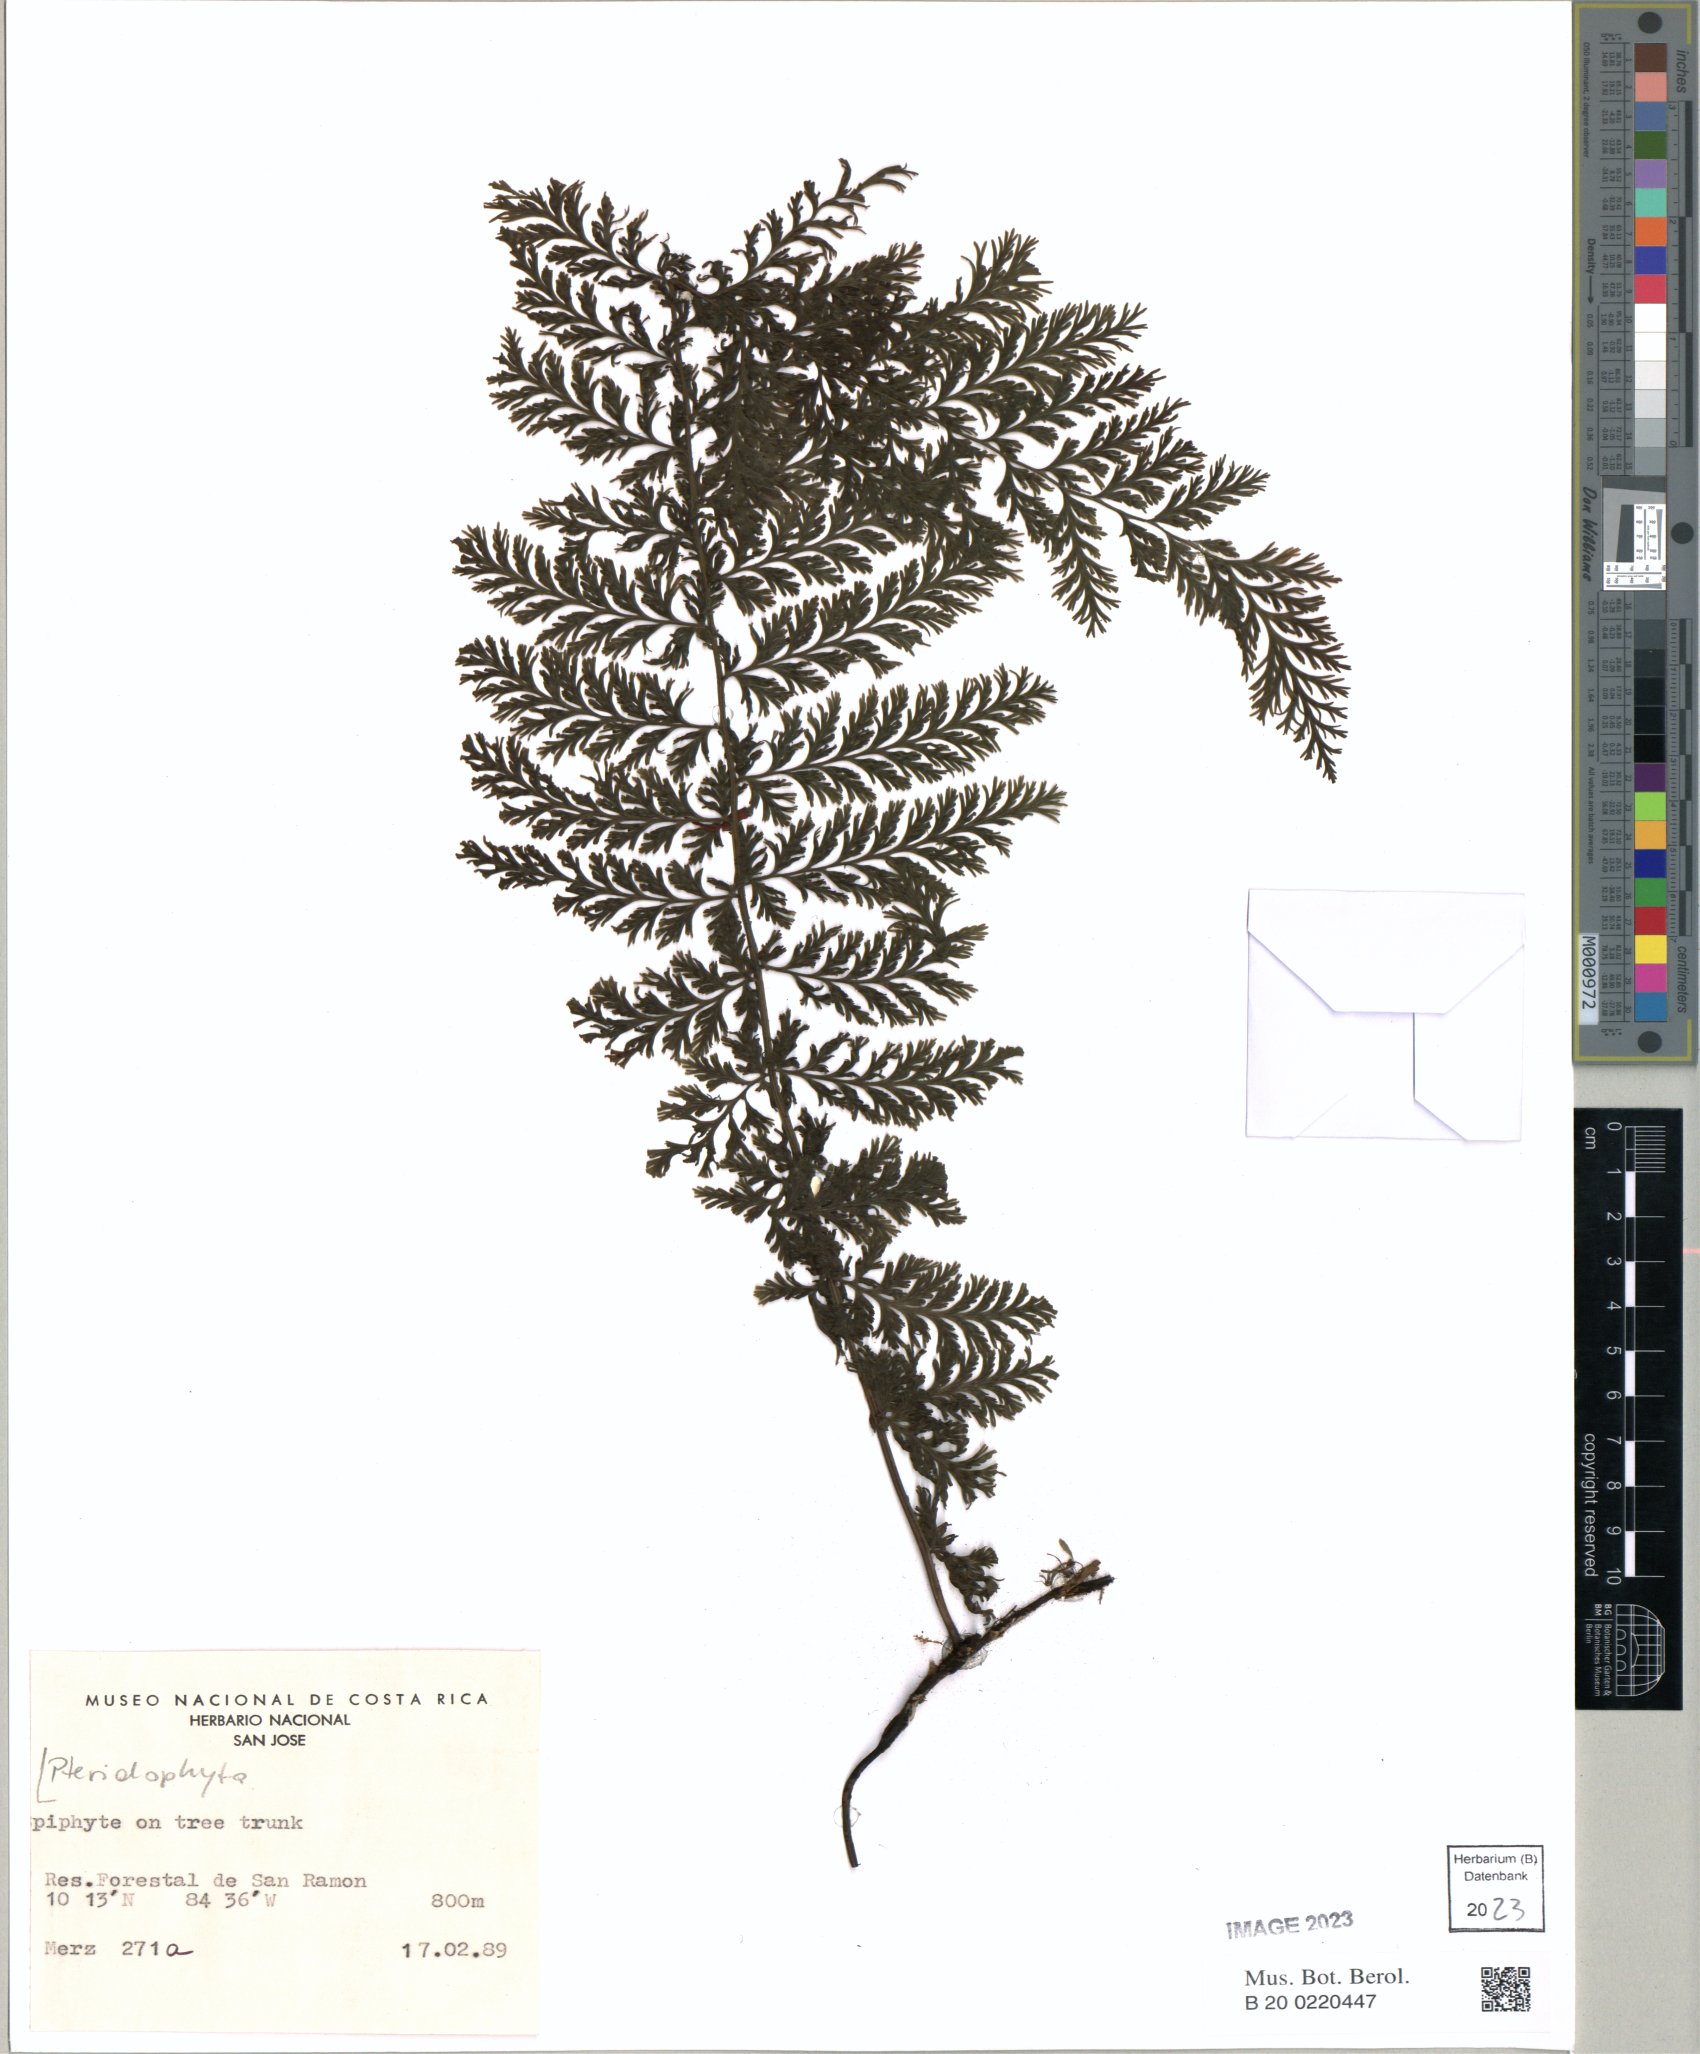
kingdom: Plantae
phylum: Tracheophyta
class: Polypodiopsida
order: Hymenophyllales
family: Hymenophyllaceae
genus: Vandenboschia
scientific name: Vandenboschia collariata
